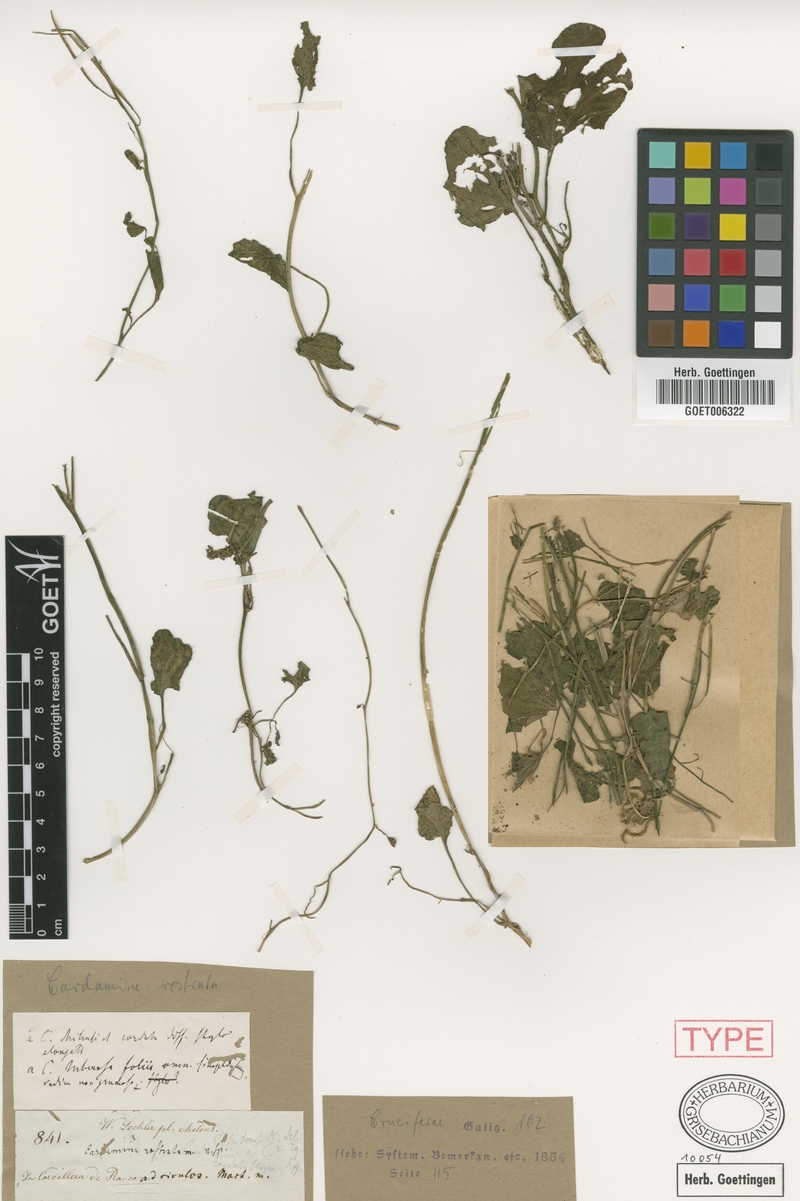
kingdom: Plantae
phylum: Tracheophyta
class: Magnoliopsida
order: Brassicales
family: Brassicaceae
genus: Cardamine
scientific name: Cardamine rostrata
